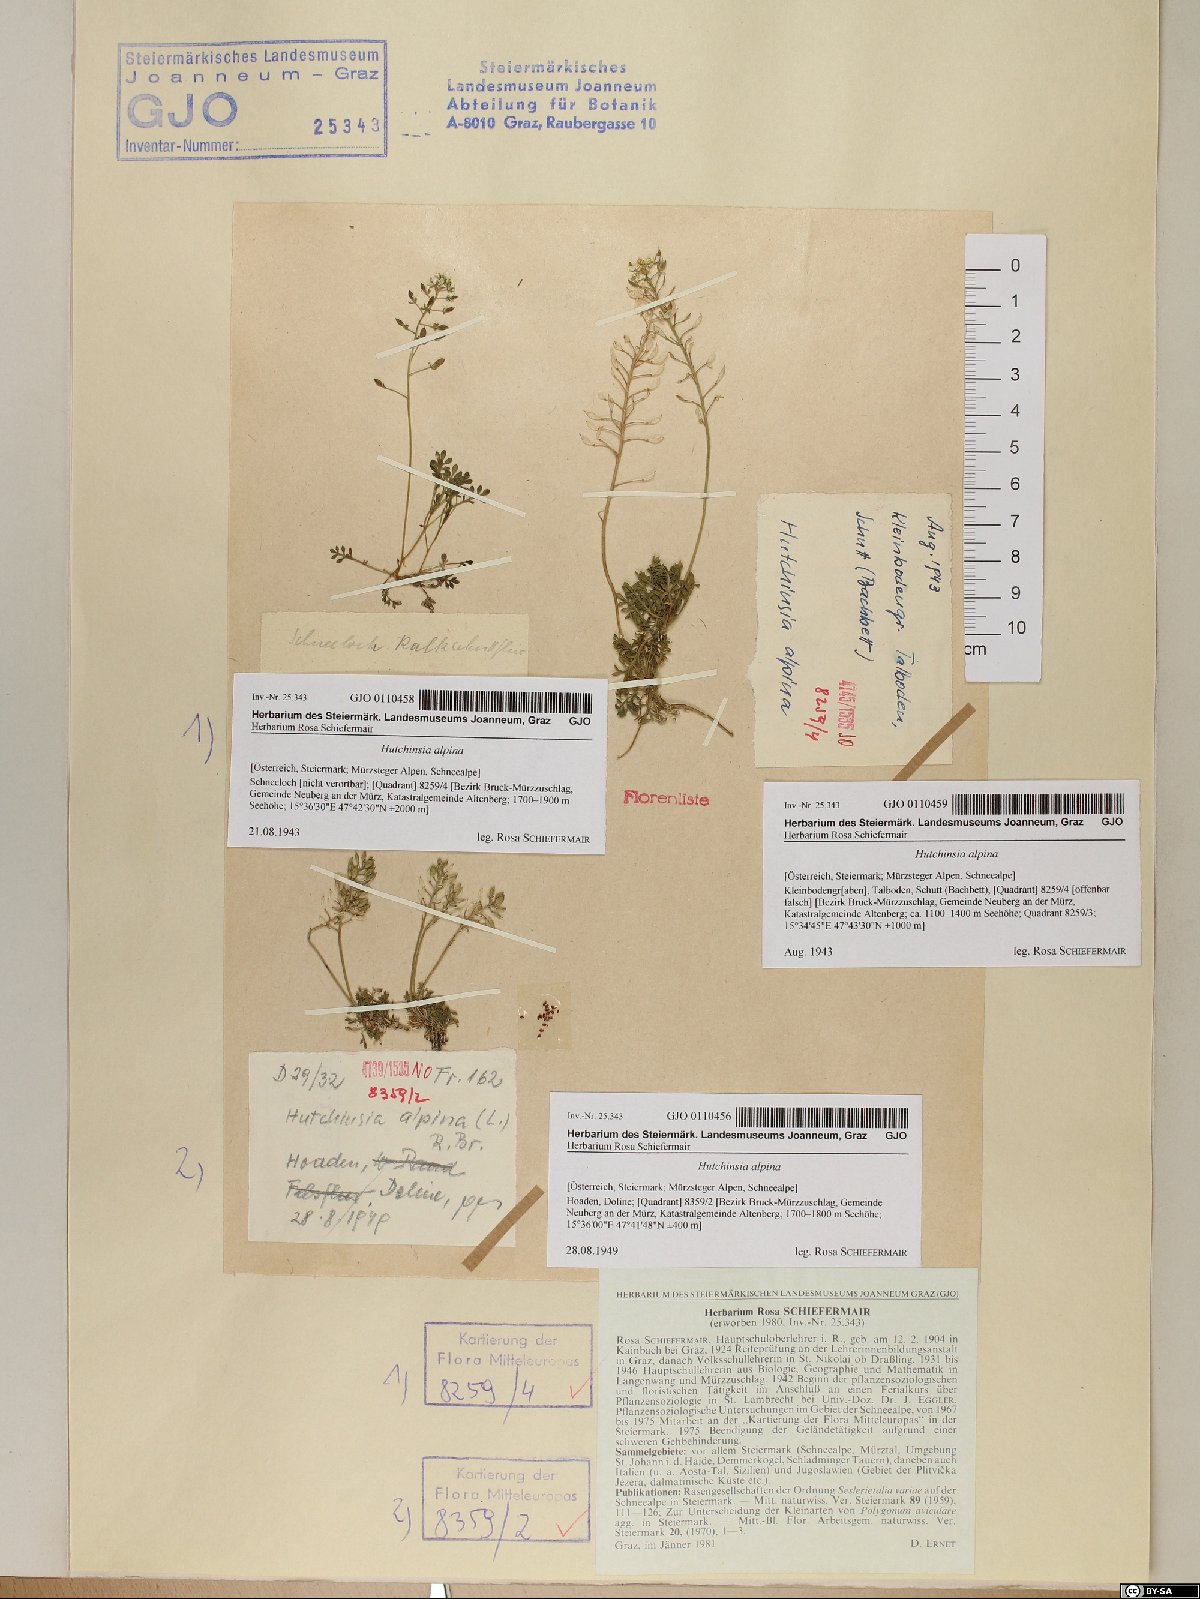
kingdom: Plantae
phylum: Tracheophyta
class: Magnoliopsida
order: Brassicales
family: Brassicaceae
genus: Hornungia
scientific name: Hornungia alpina
